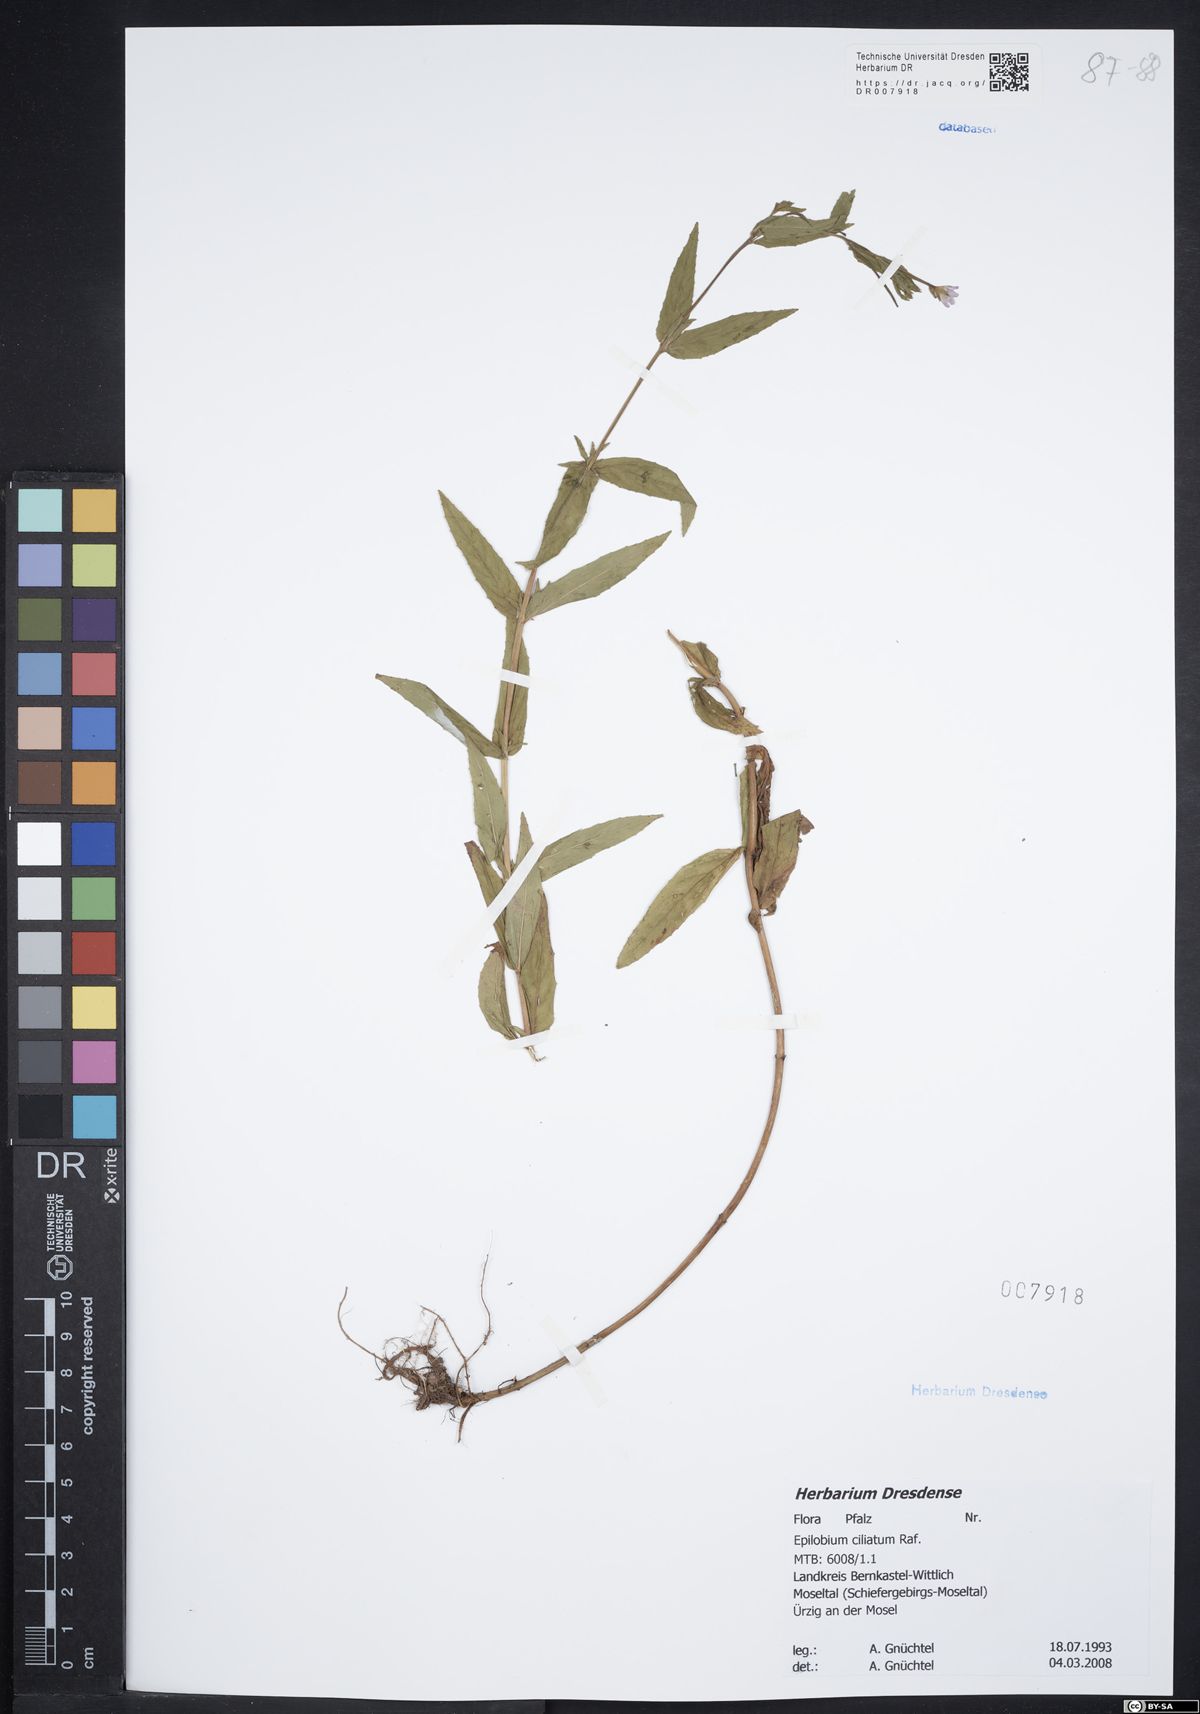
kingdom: Plantae
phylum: Tracheophyta
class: Magnoliopsida
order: Myrtales
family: Onagraceae
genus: Epilobium
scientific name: Epilobium ciliatum
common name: American willowherb
